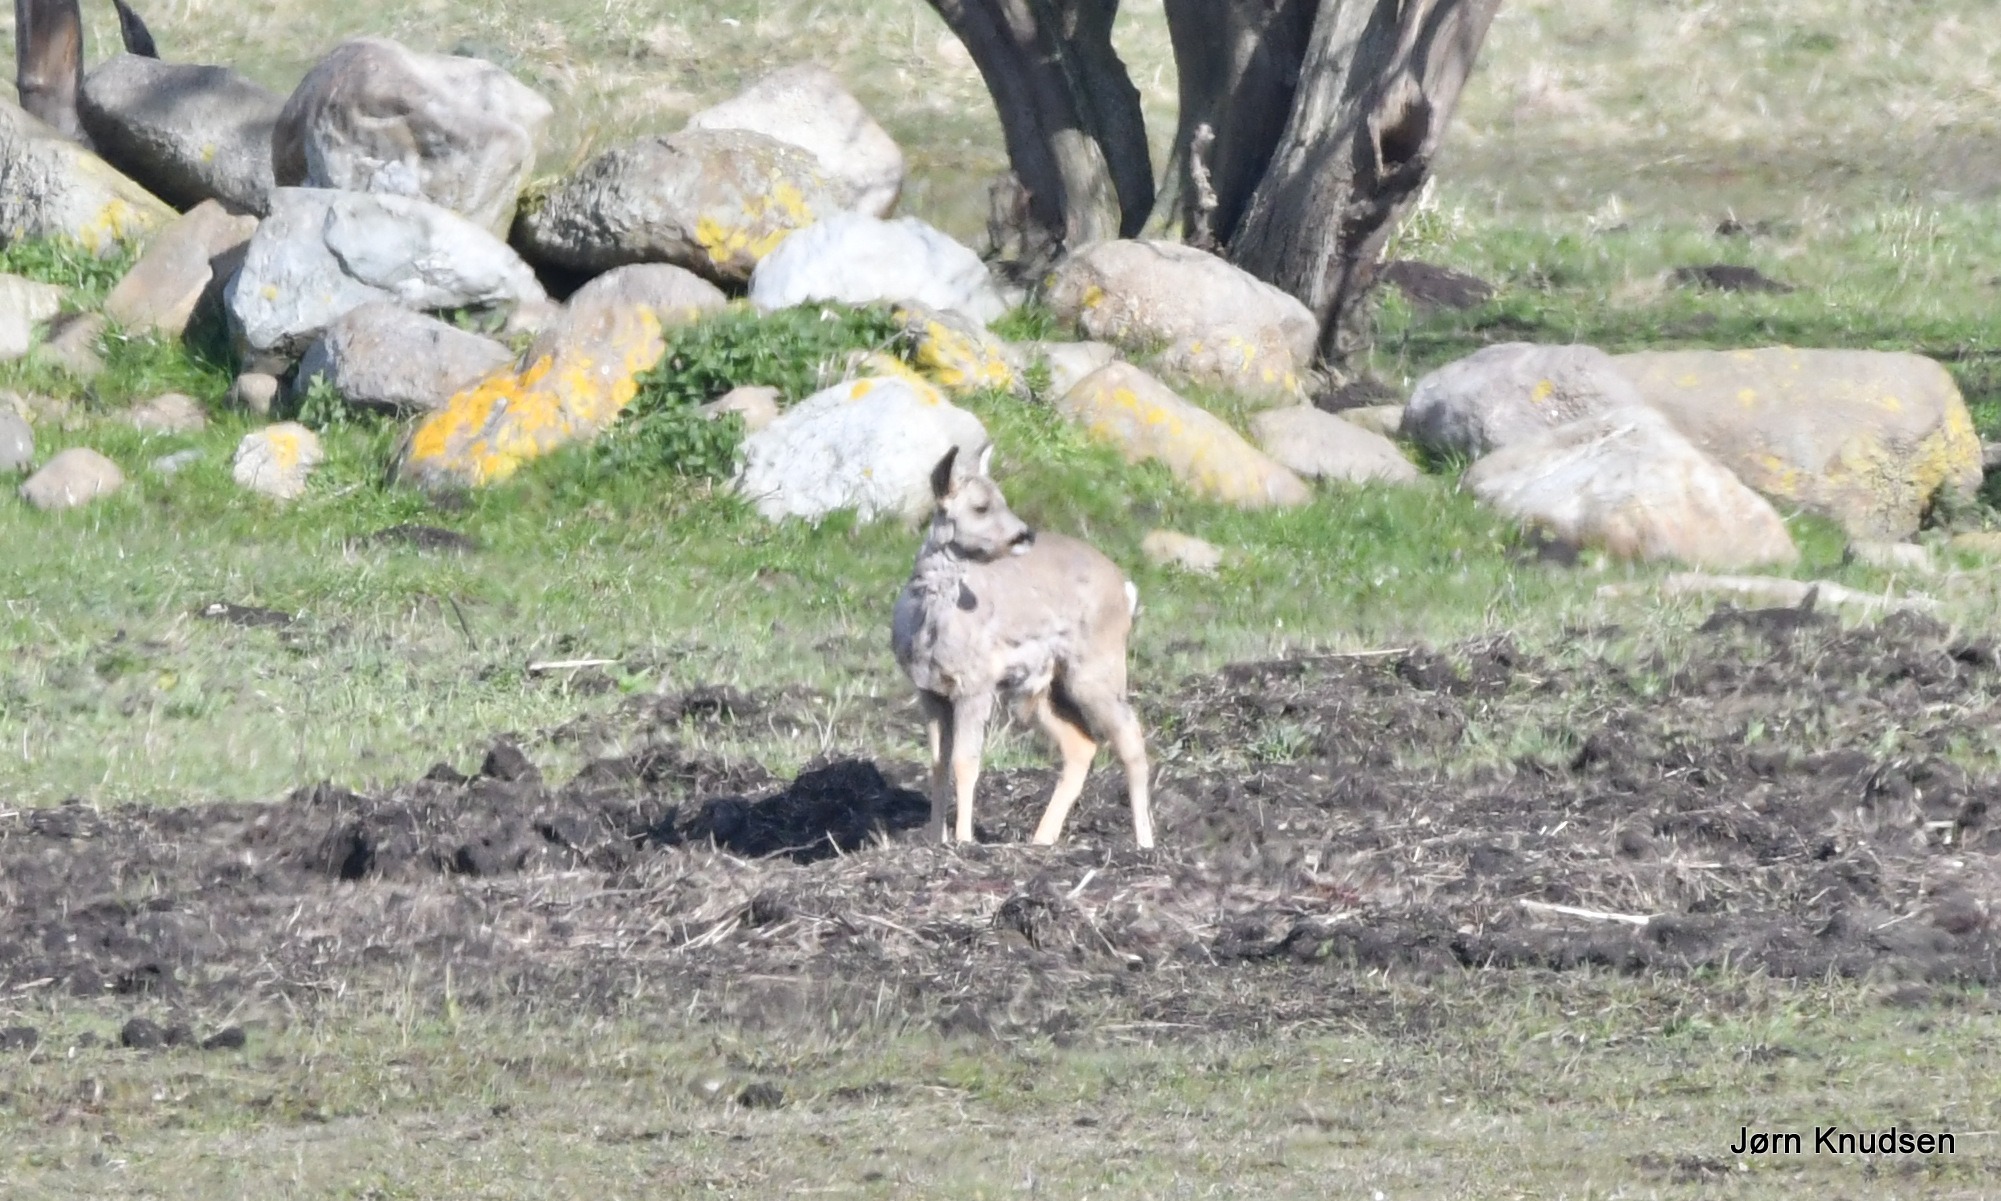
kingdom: Animalia
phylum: Chordata
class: Mammalia
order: Artiodactyla
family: Cervidae
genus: Capreolus
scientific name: Capreolus capreolus
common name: Rådyr
